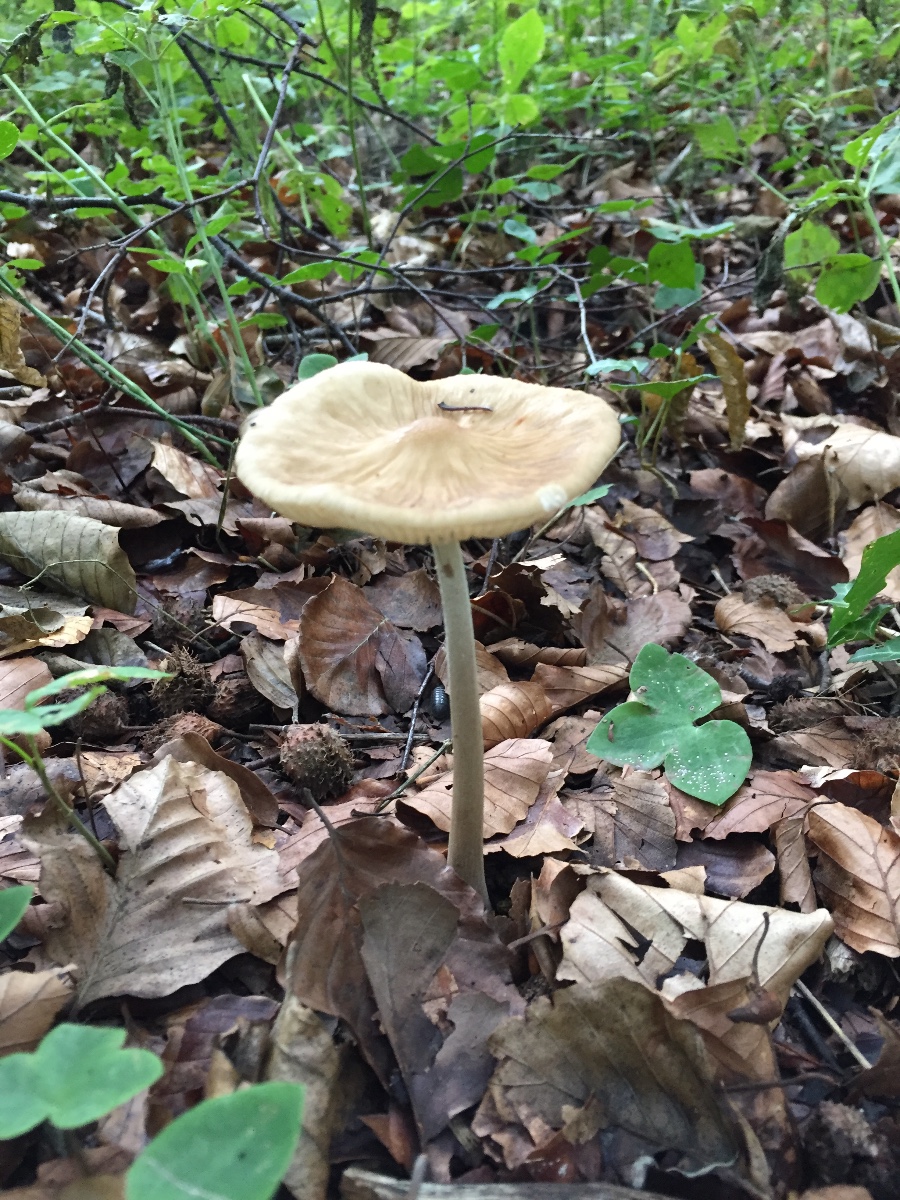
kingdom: Fungi
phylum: Basidiomycota
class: Agaricomycetes
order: Agaricales
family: Physalacriaceae
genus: Hymenopellis
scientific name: Hymenopellis radicata
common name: almindelig pælerodshat
